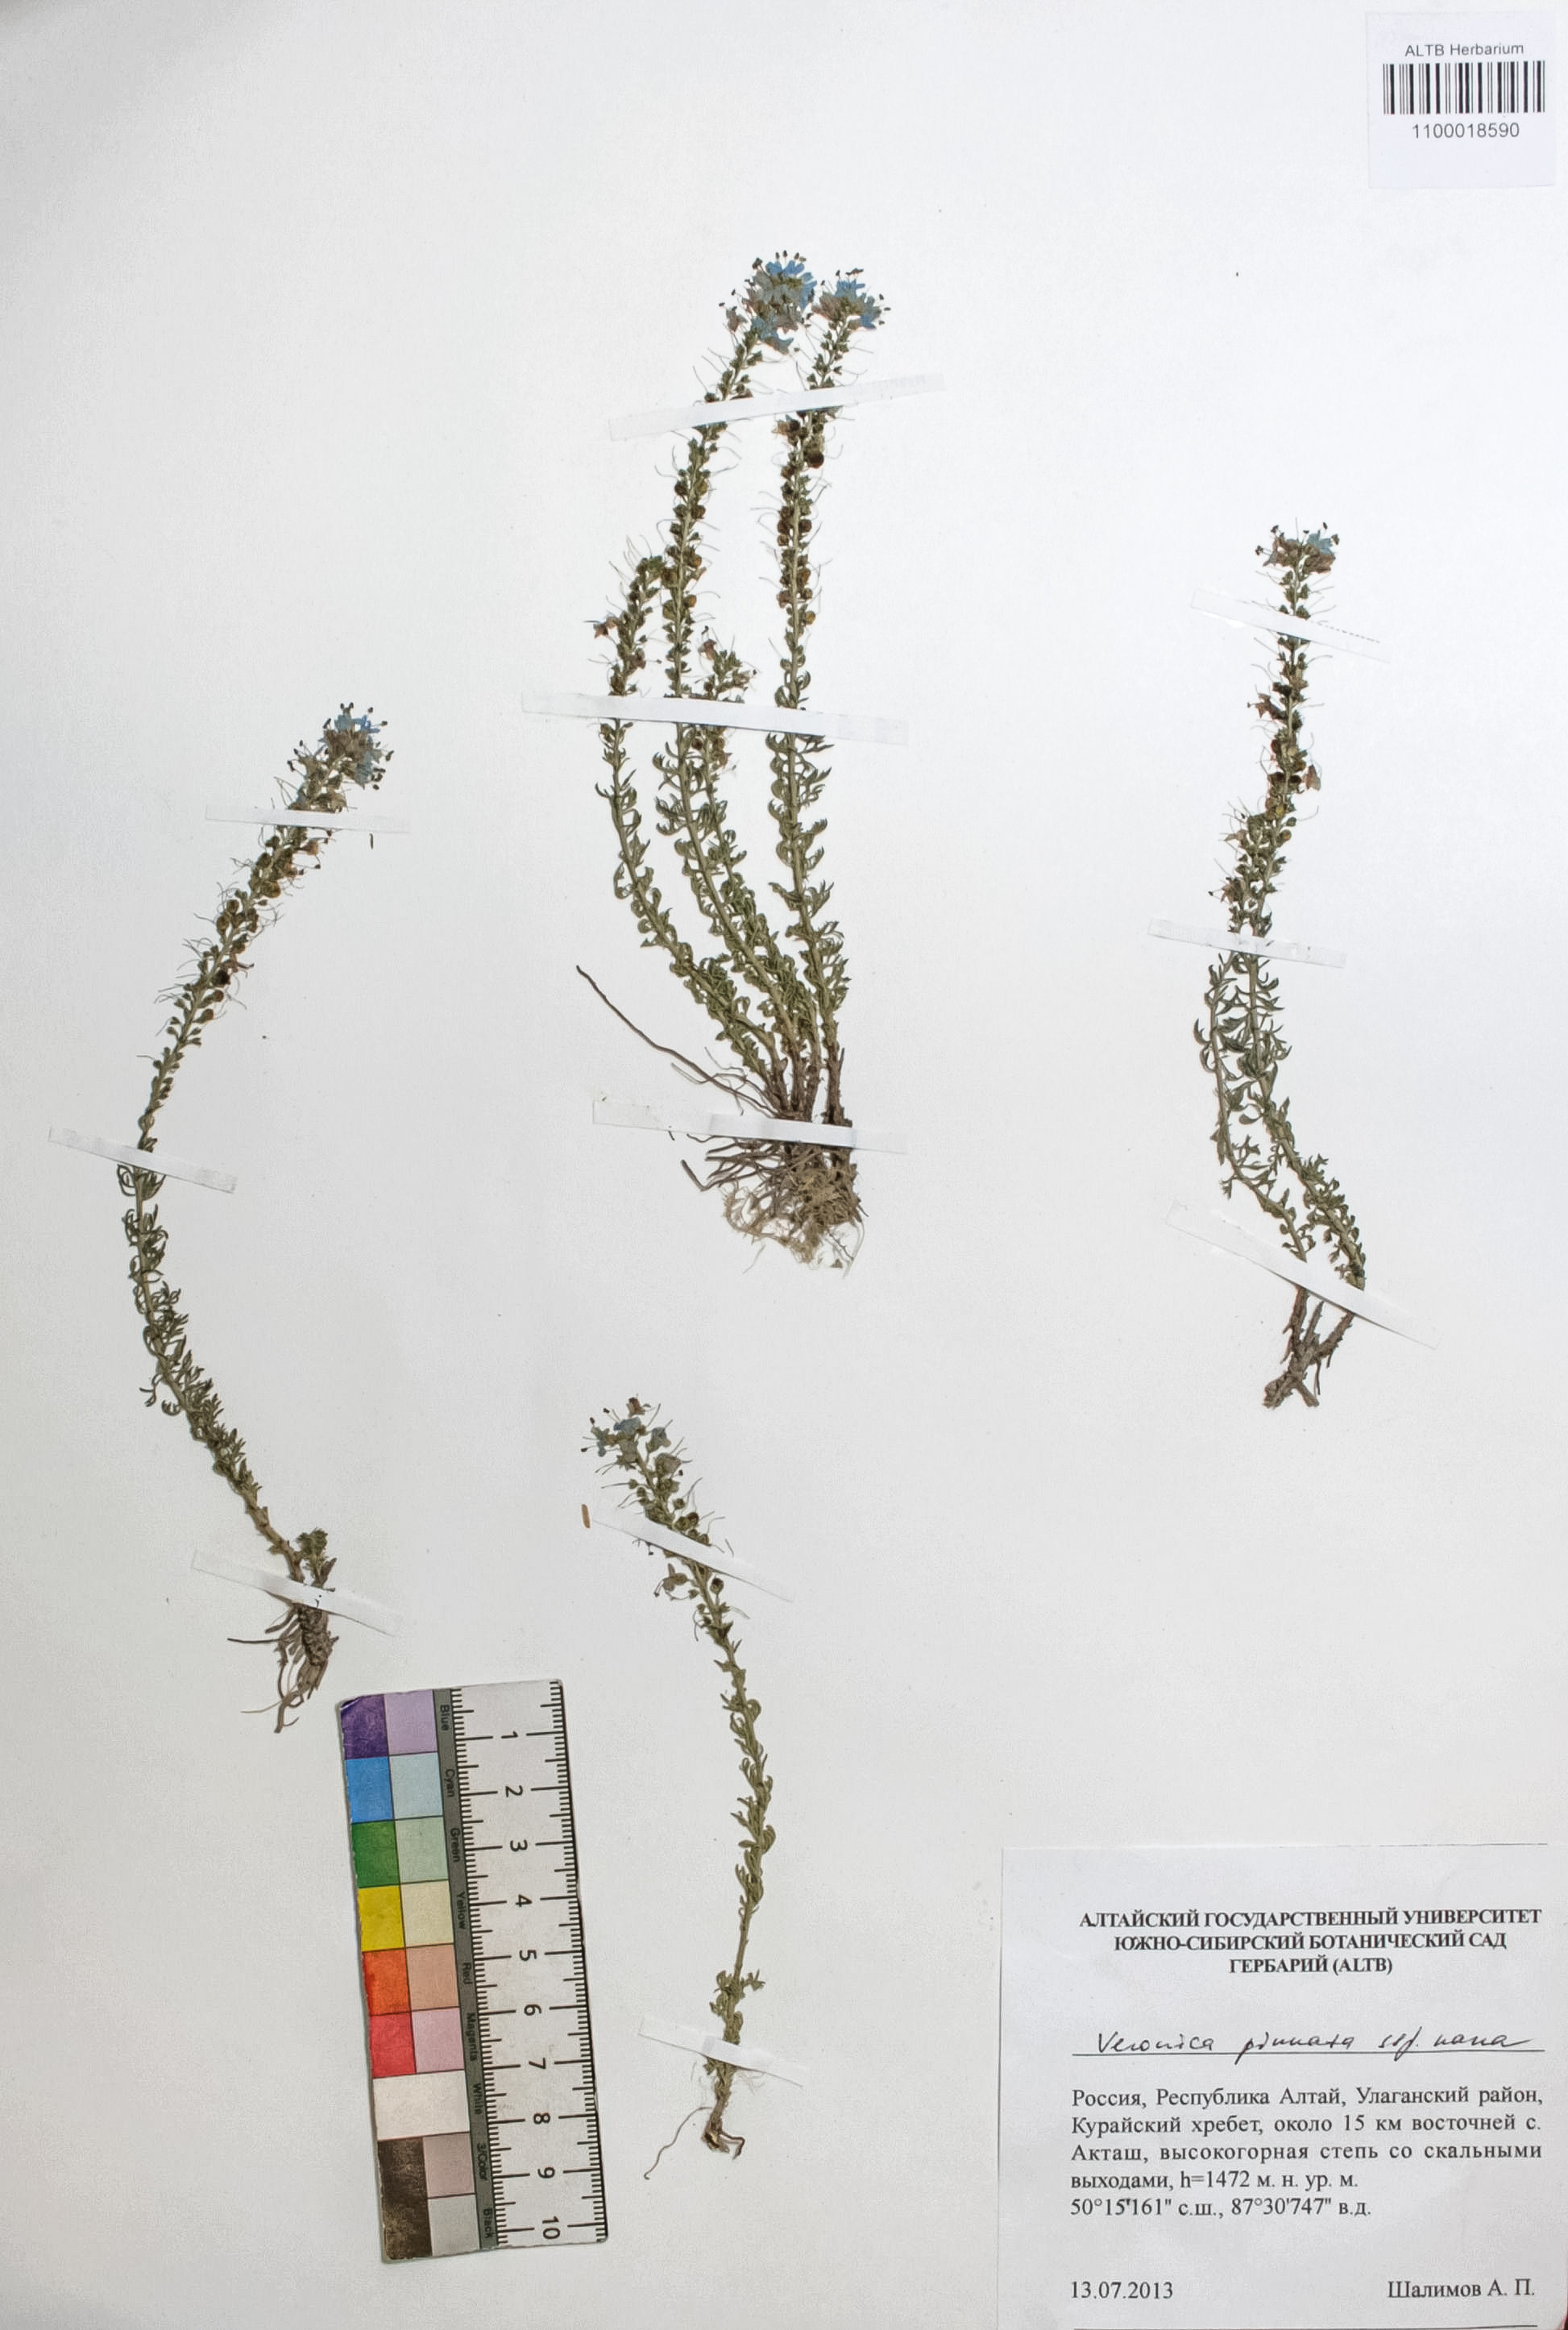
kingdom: Plantae
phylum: Tracheophyta
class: Magnoliopsida
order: Lamiales
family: Plantaginaceae
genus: Veronica
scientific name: Veronica pinnata
